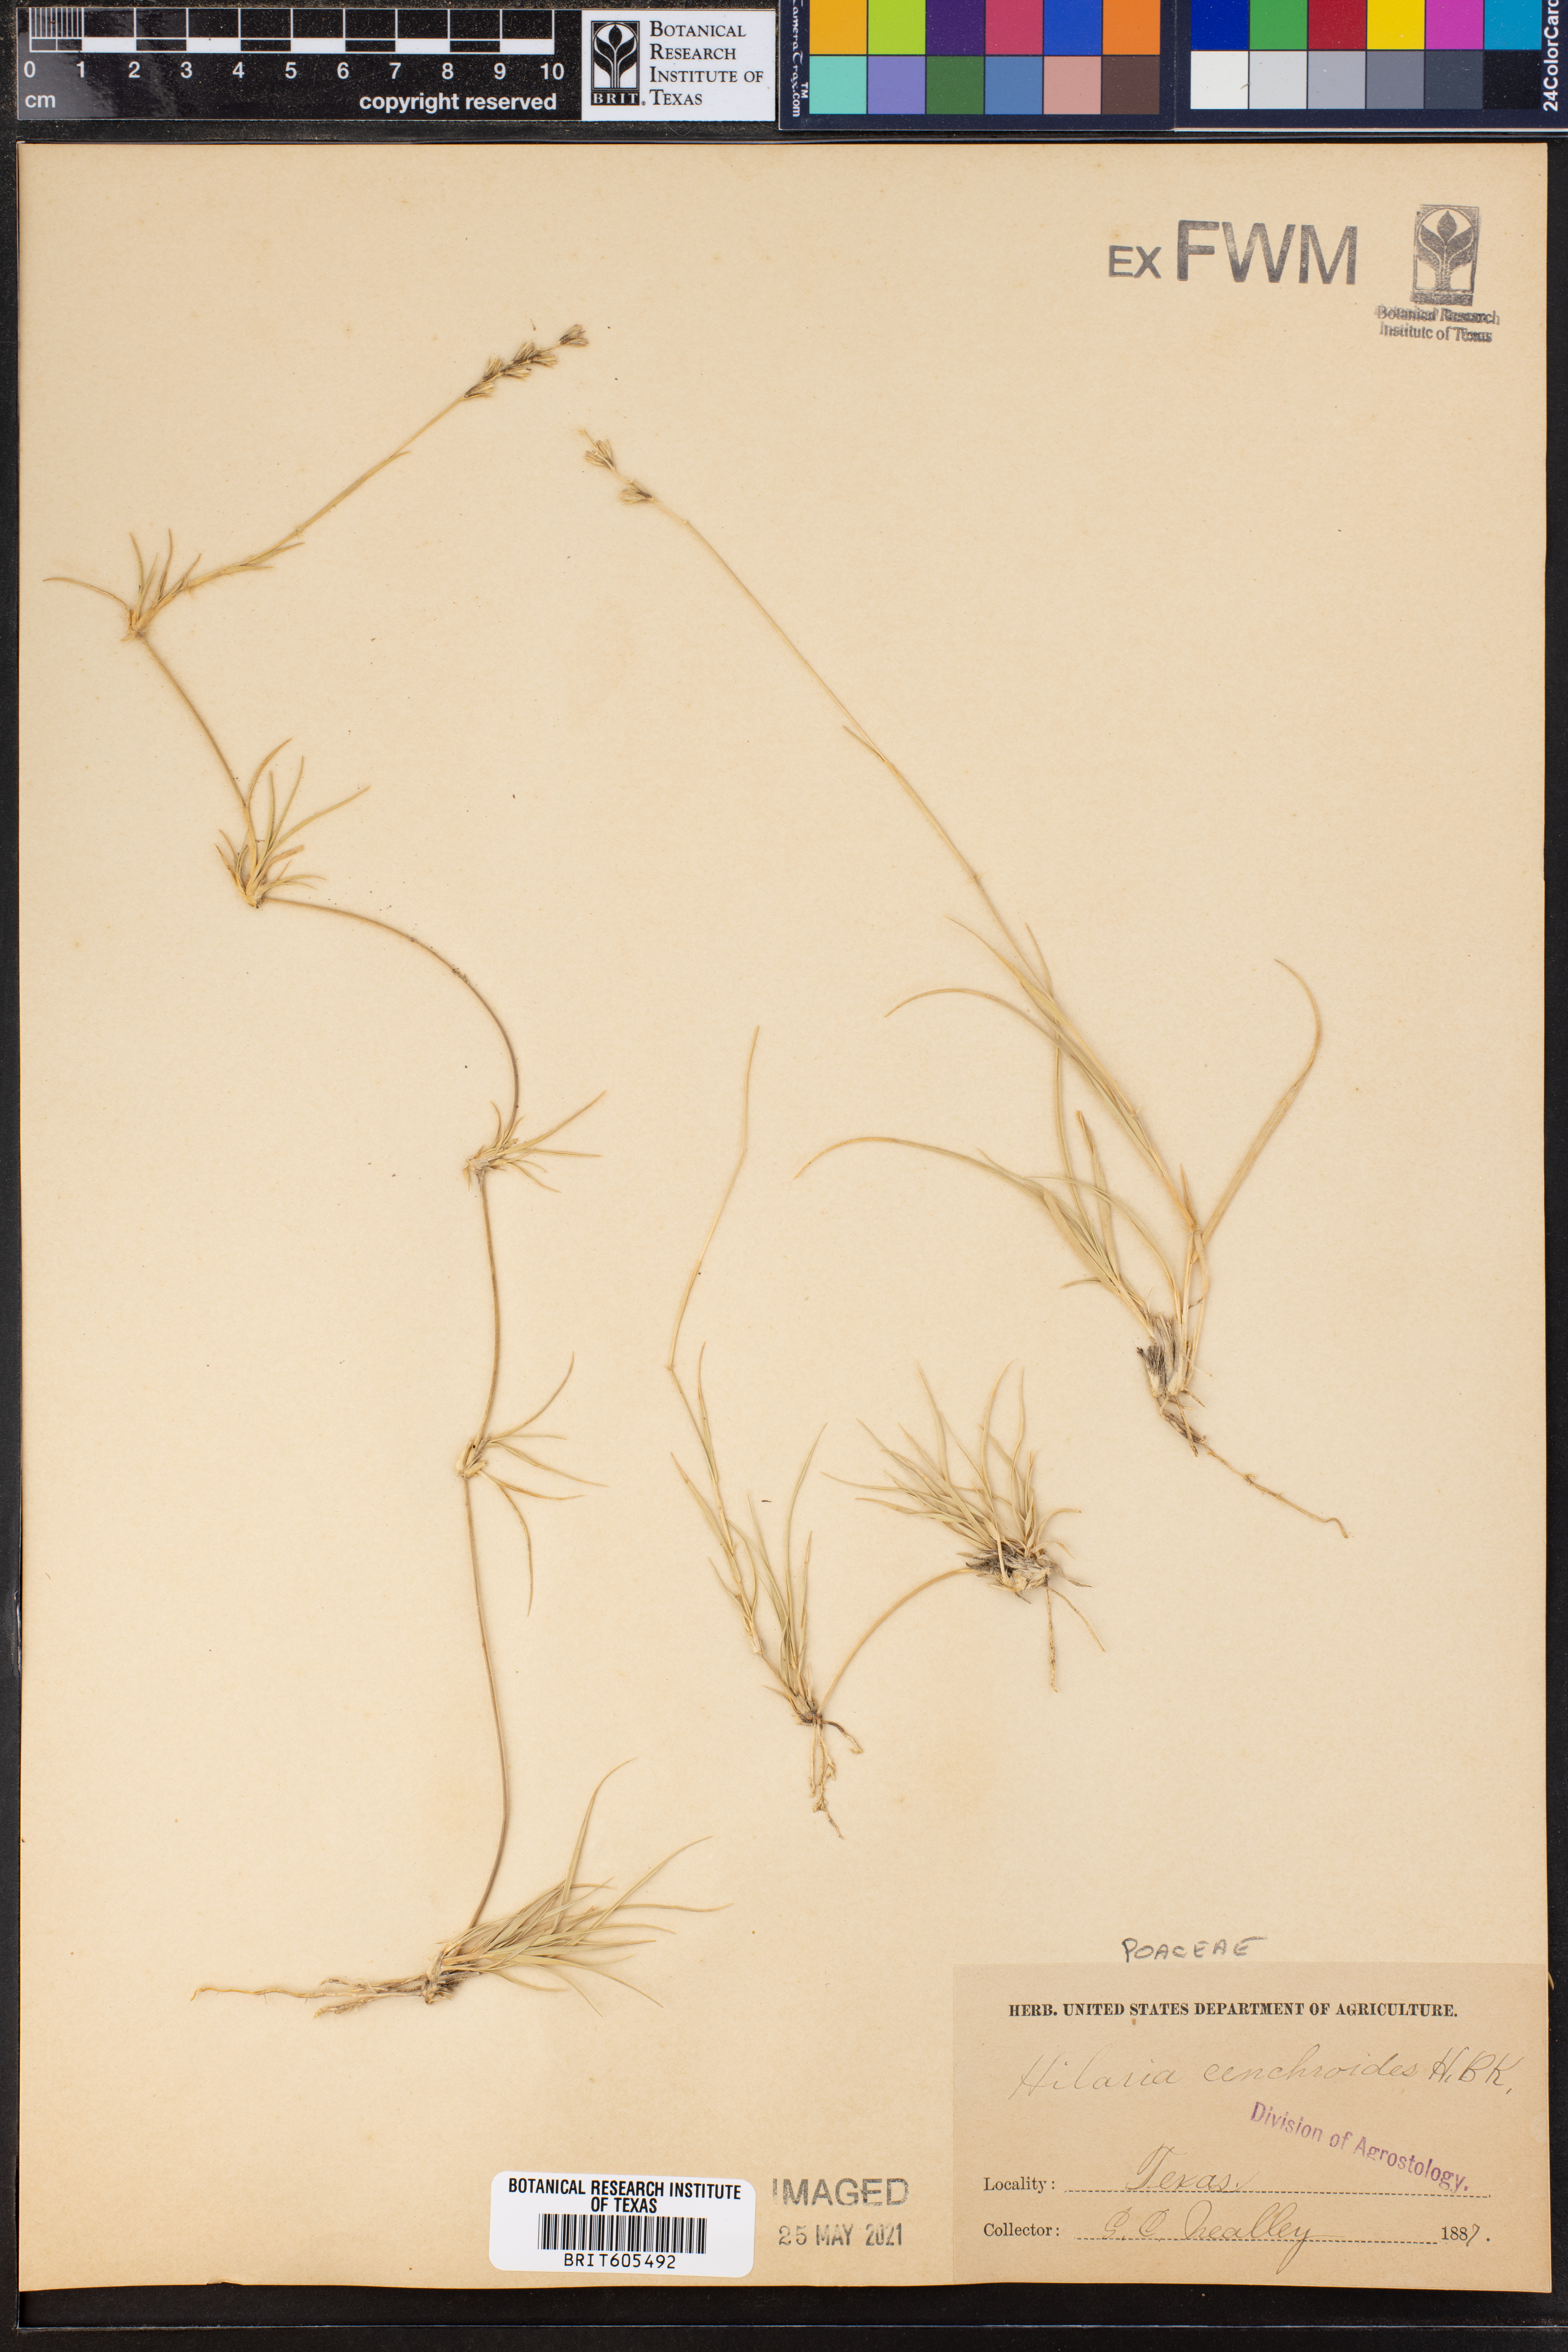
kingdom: Plantae
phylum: Tracheophyta
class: Liliopsida
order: Poales
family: Poaceae
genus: Hilaria
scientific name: Hilaria cenchroides
